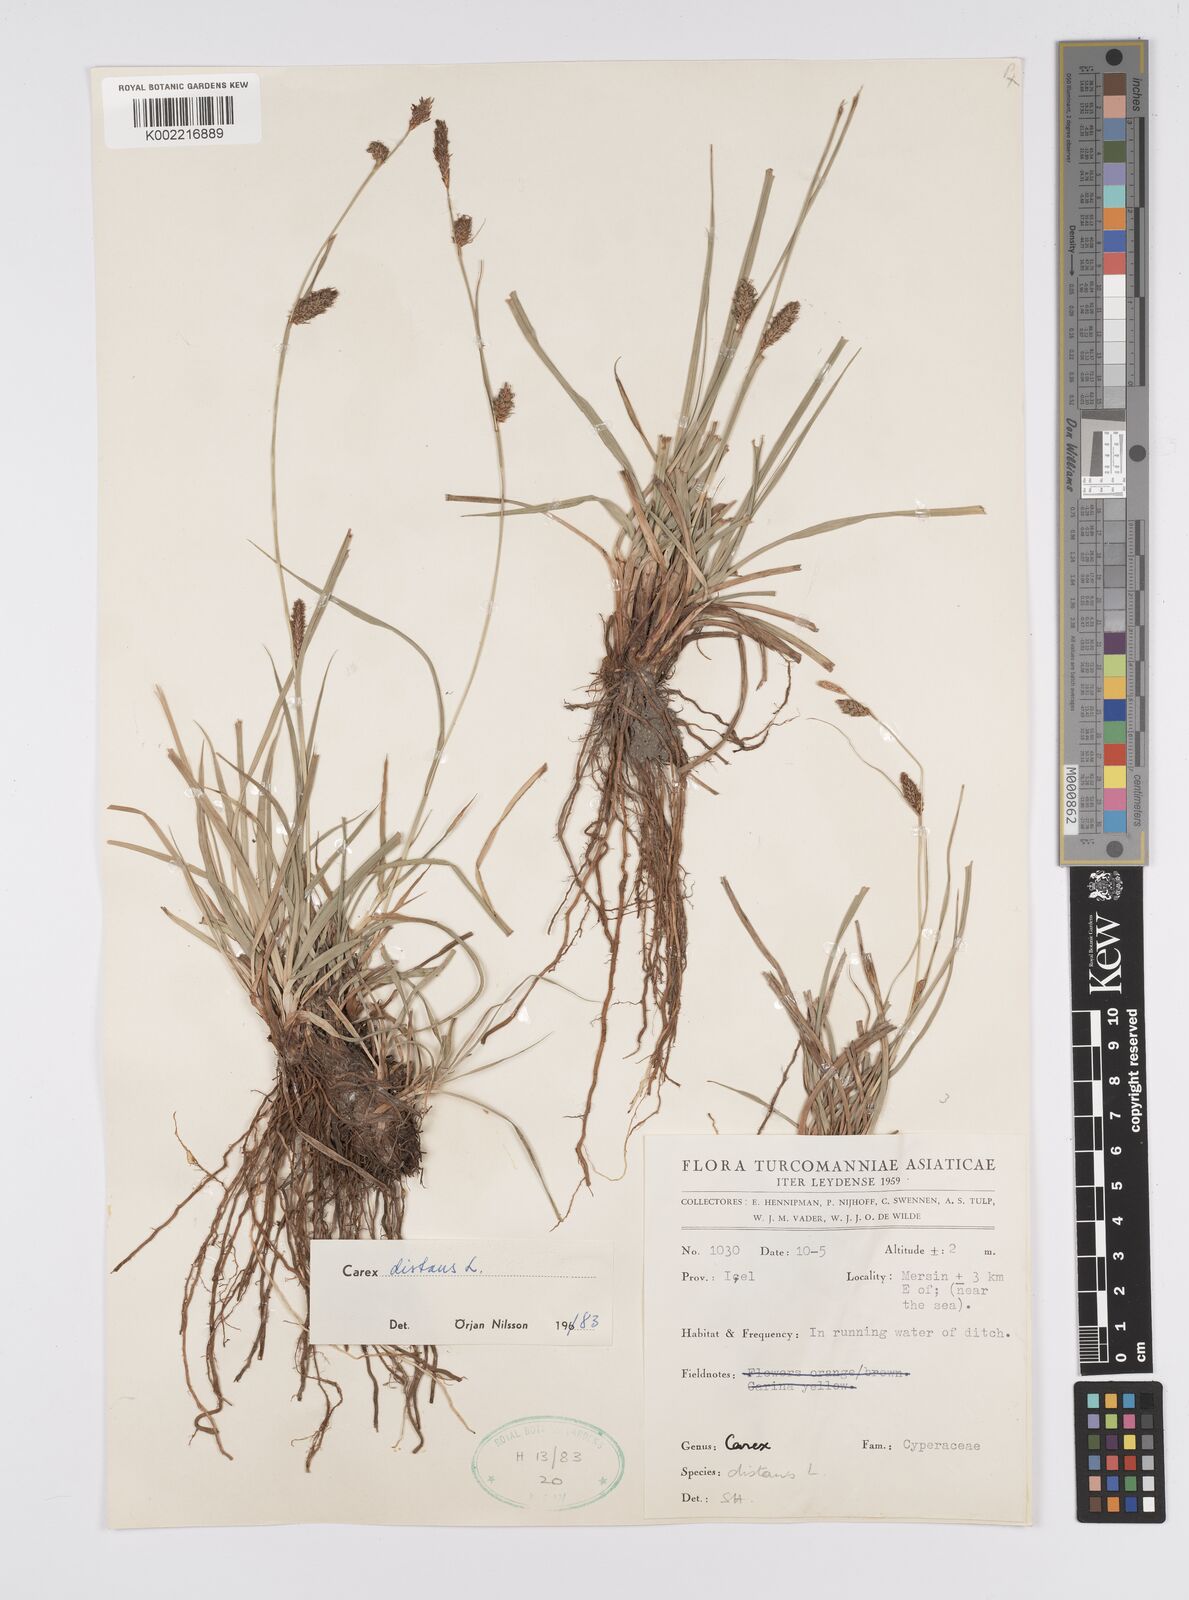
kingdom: Plantae
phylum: Tracheophyta
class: Liliopsida
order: Poales
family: Cyperaceae
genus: Carex
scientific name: Carex distans
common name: Distant sedge
